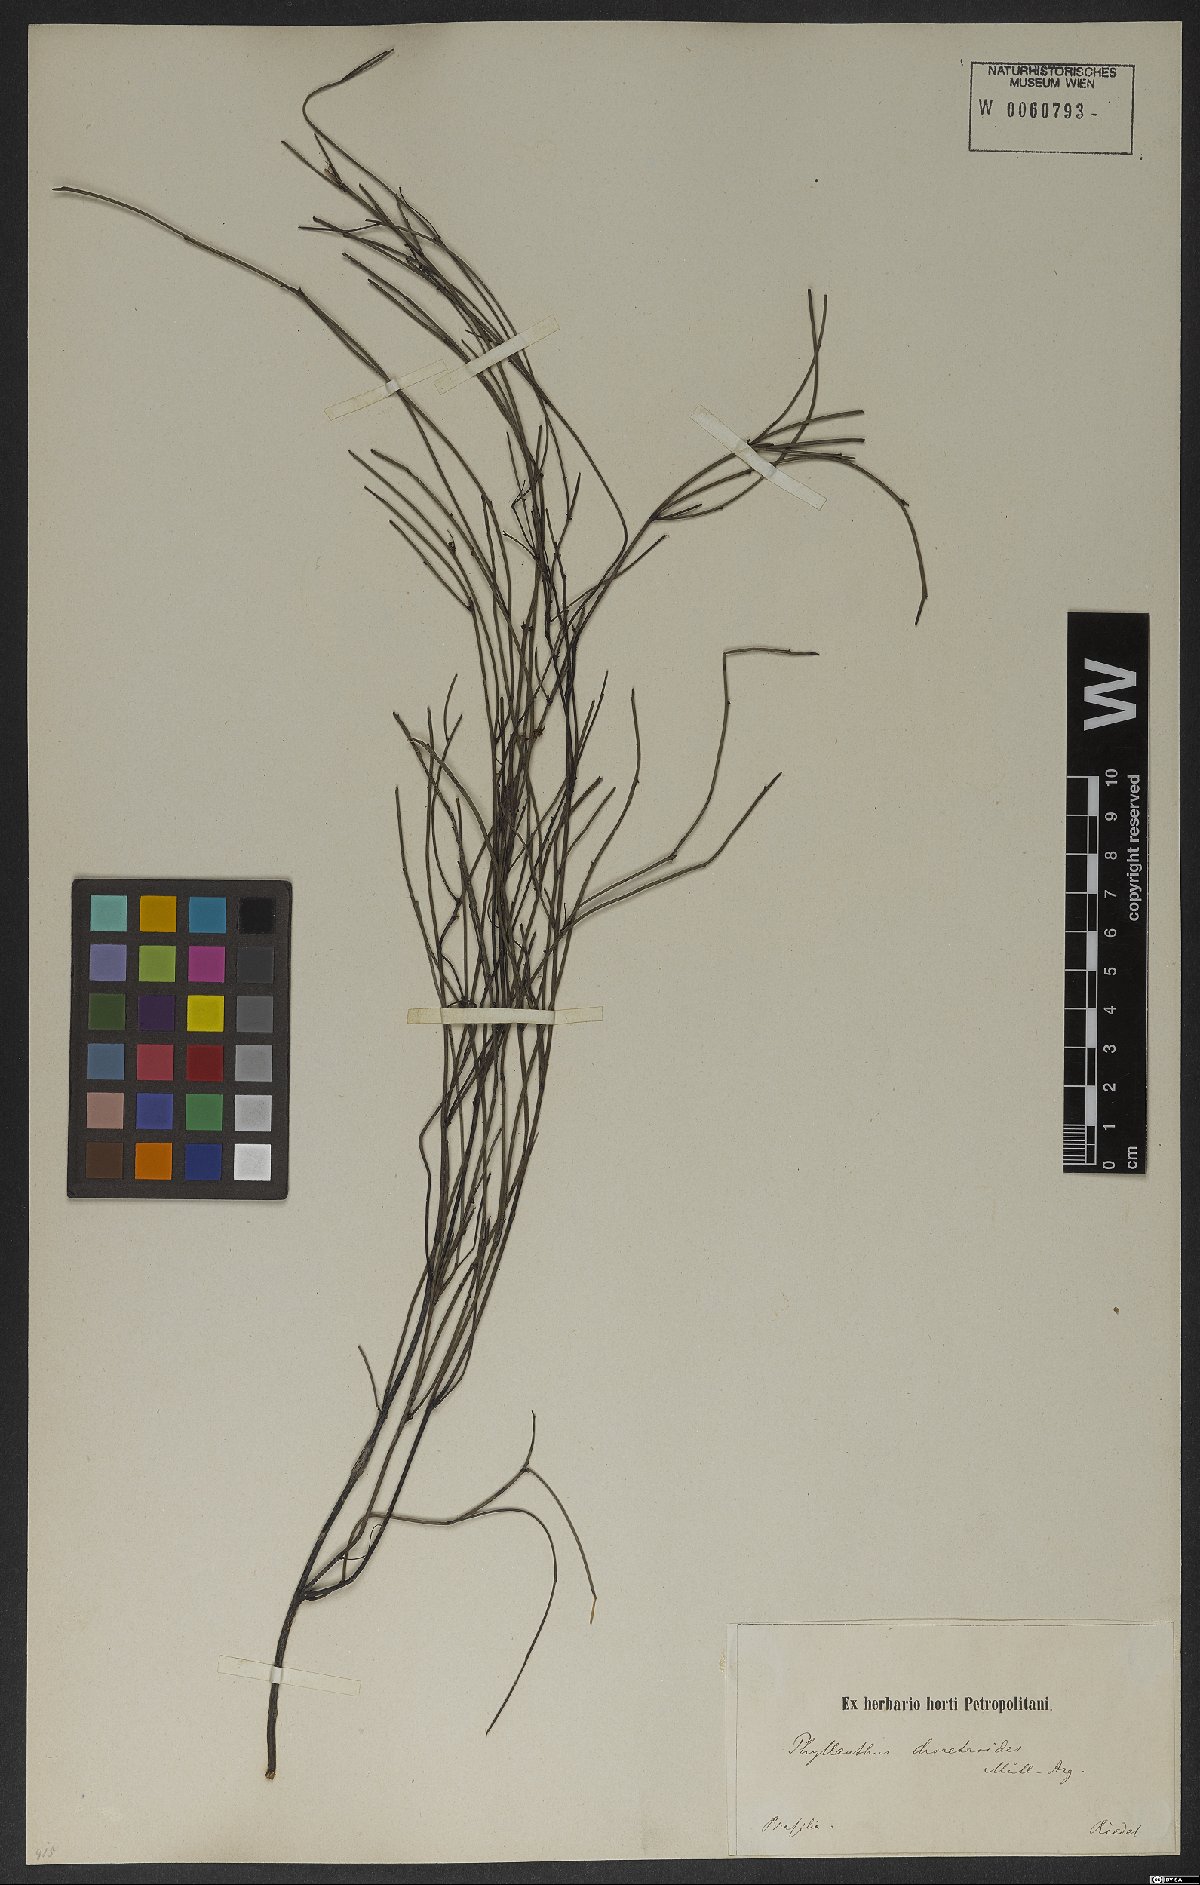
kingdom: Plantae
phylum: Tracheophyta
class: Magnoliopsida
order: Malpighiales
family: Phyllanthaceae
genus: Phyllanthus
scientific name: Phyllanthus choretroides
